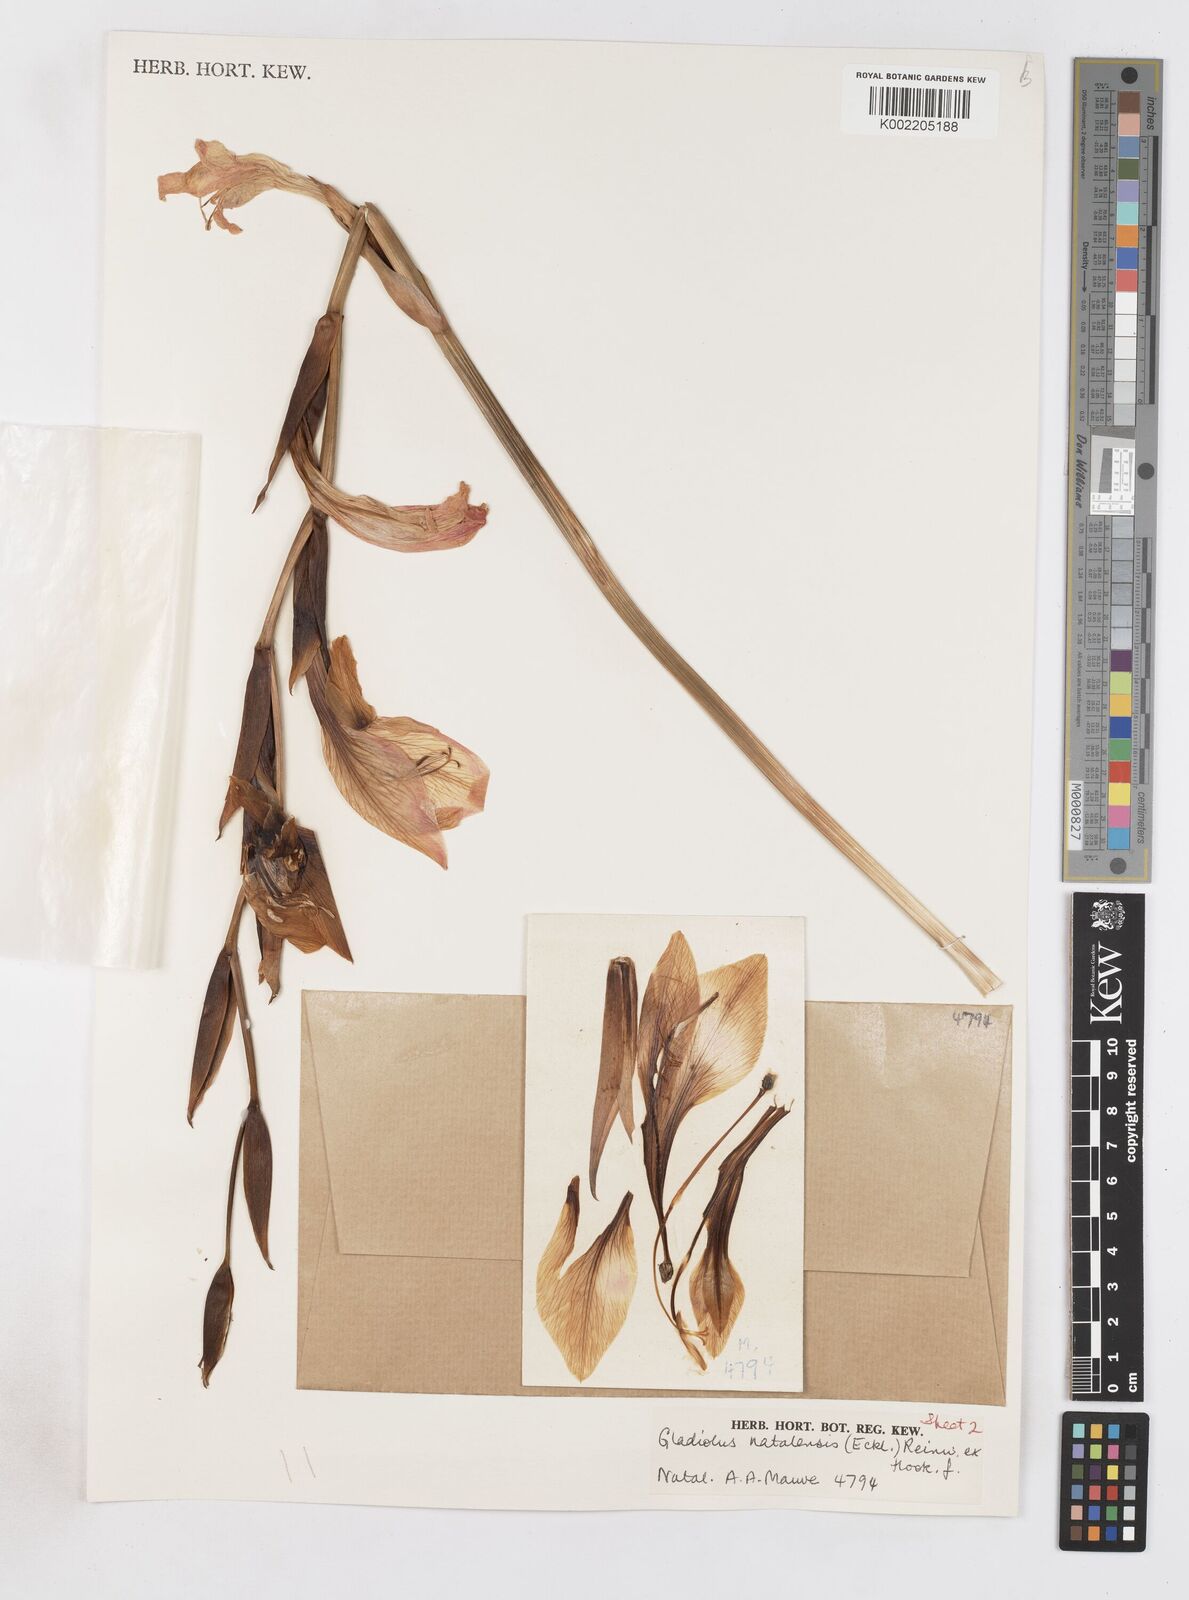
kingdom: Plantae
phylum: Tracheophyta
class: Liliopsida
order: Asparagales
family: Iridaceae
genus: Gladiolus
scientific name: Gladiolus dalenii
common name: Cornflag
